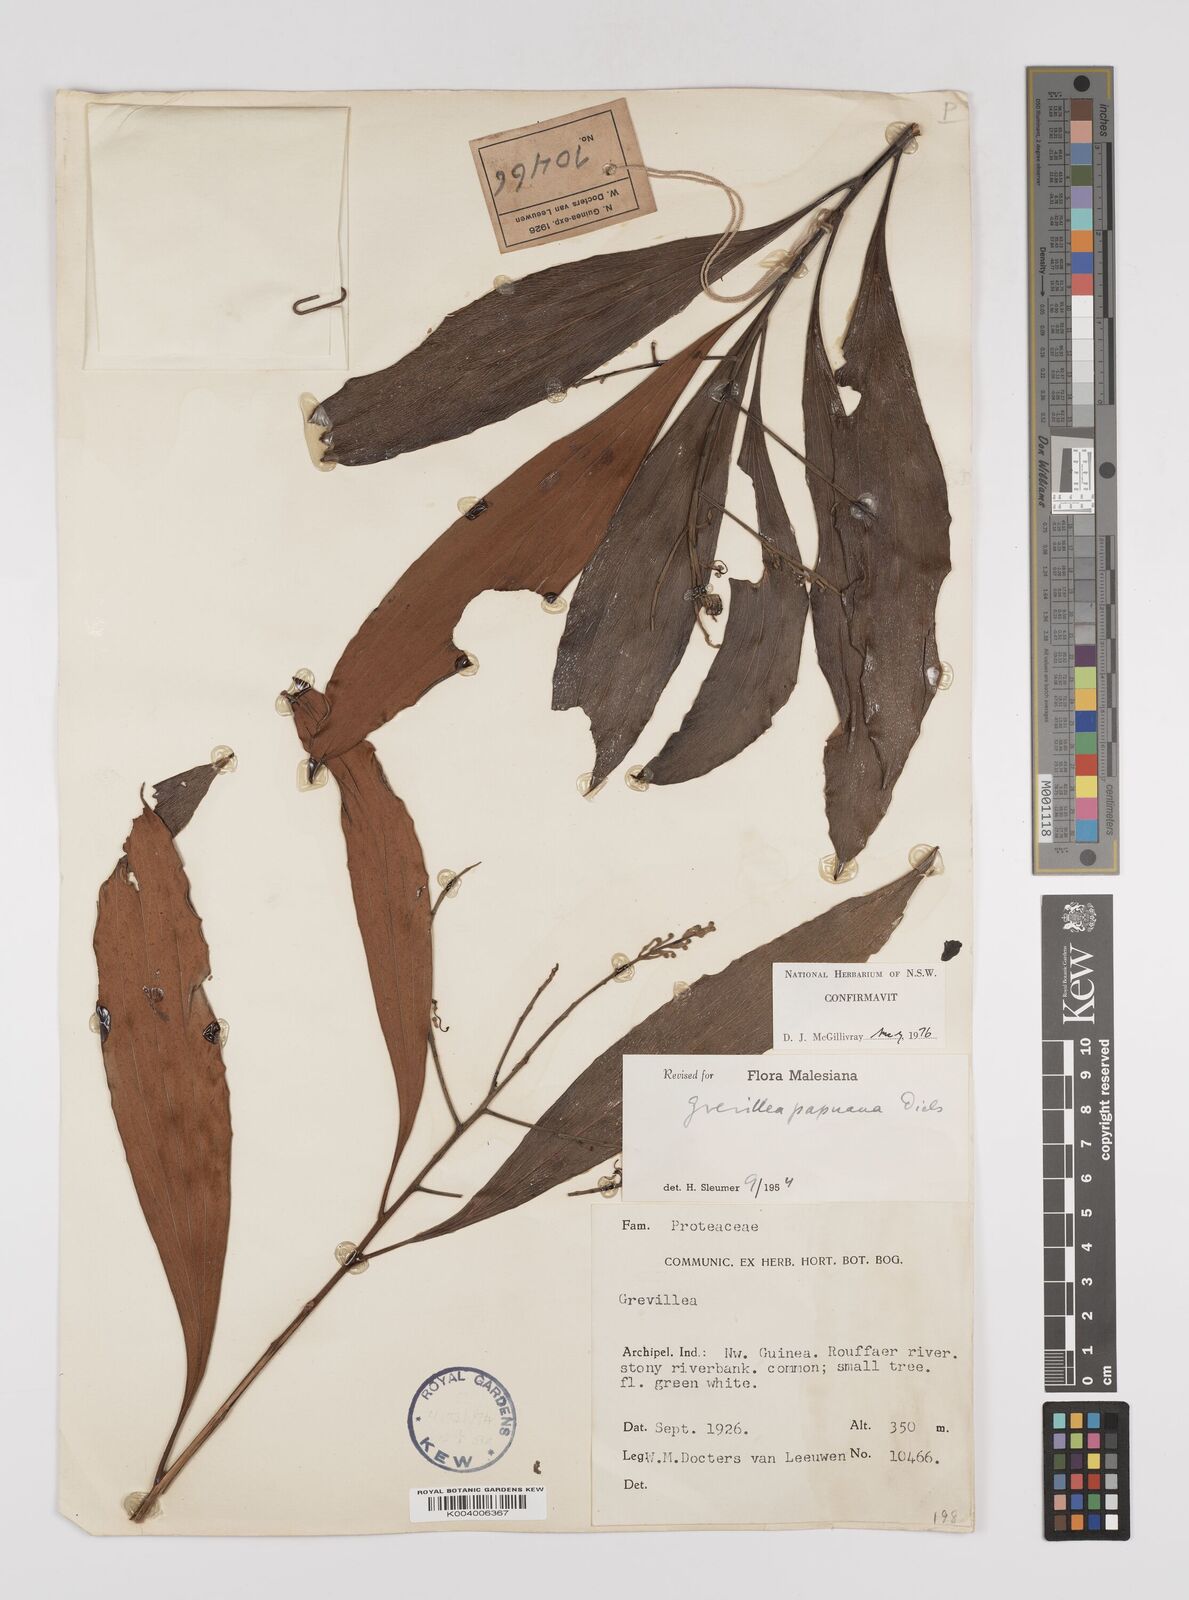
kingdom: Plantae
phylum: Tracheophyta
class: Magnoliopsida
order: Proteales
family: Proteaceae
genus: Grevillea
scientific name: Grevillea papuana
